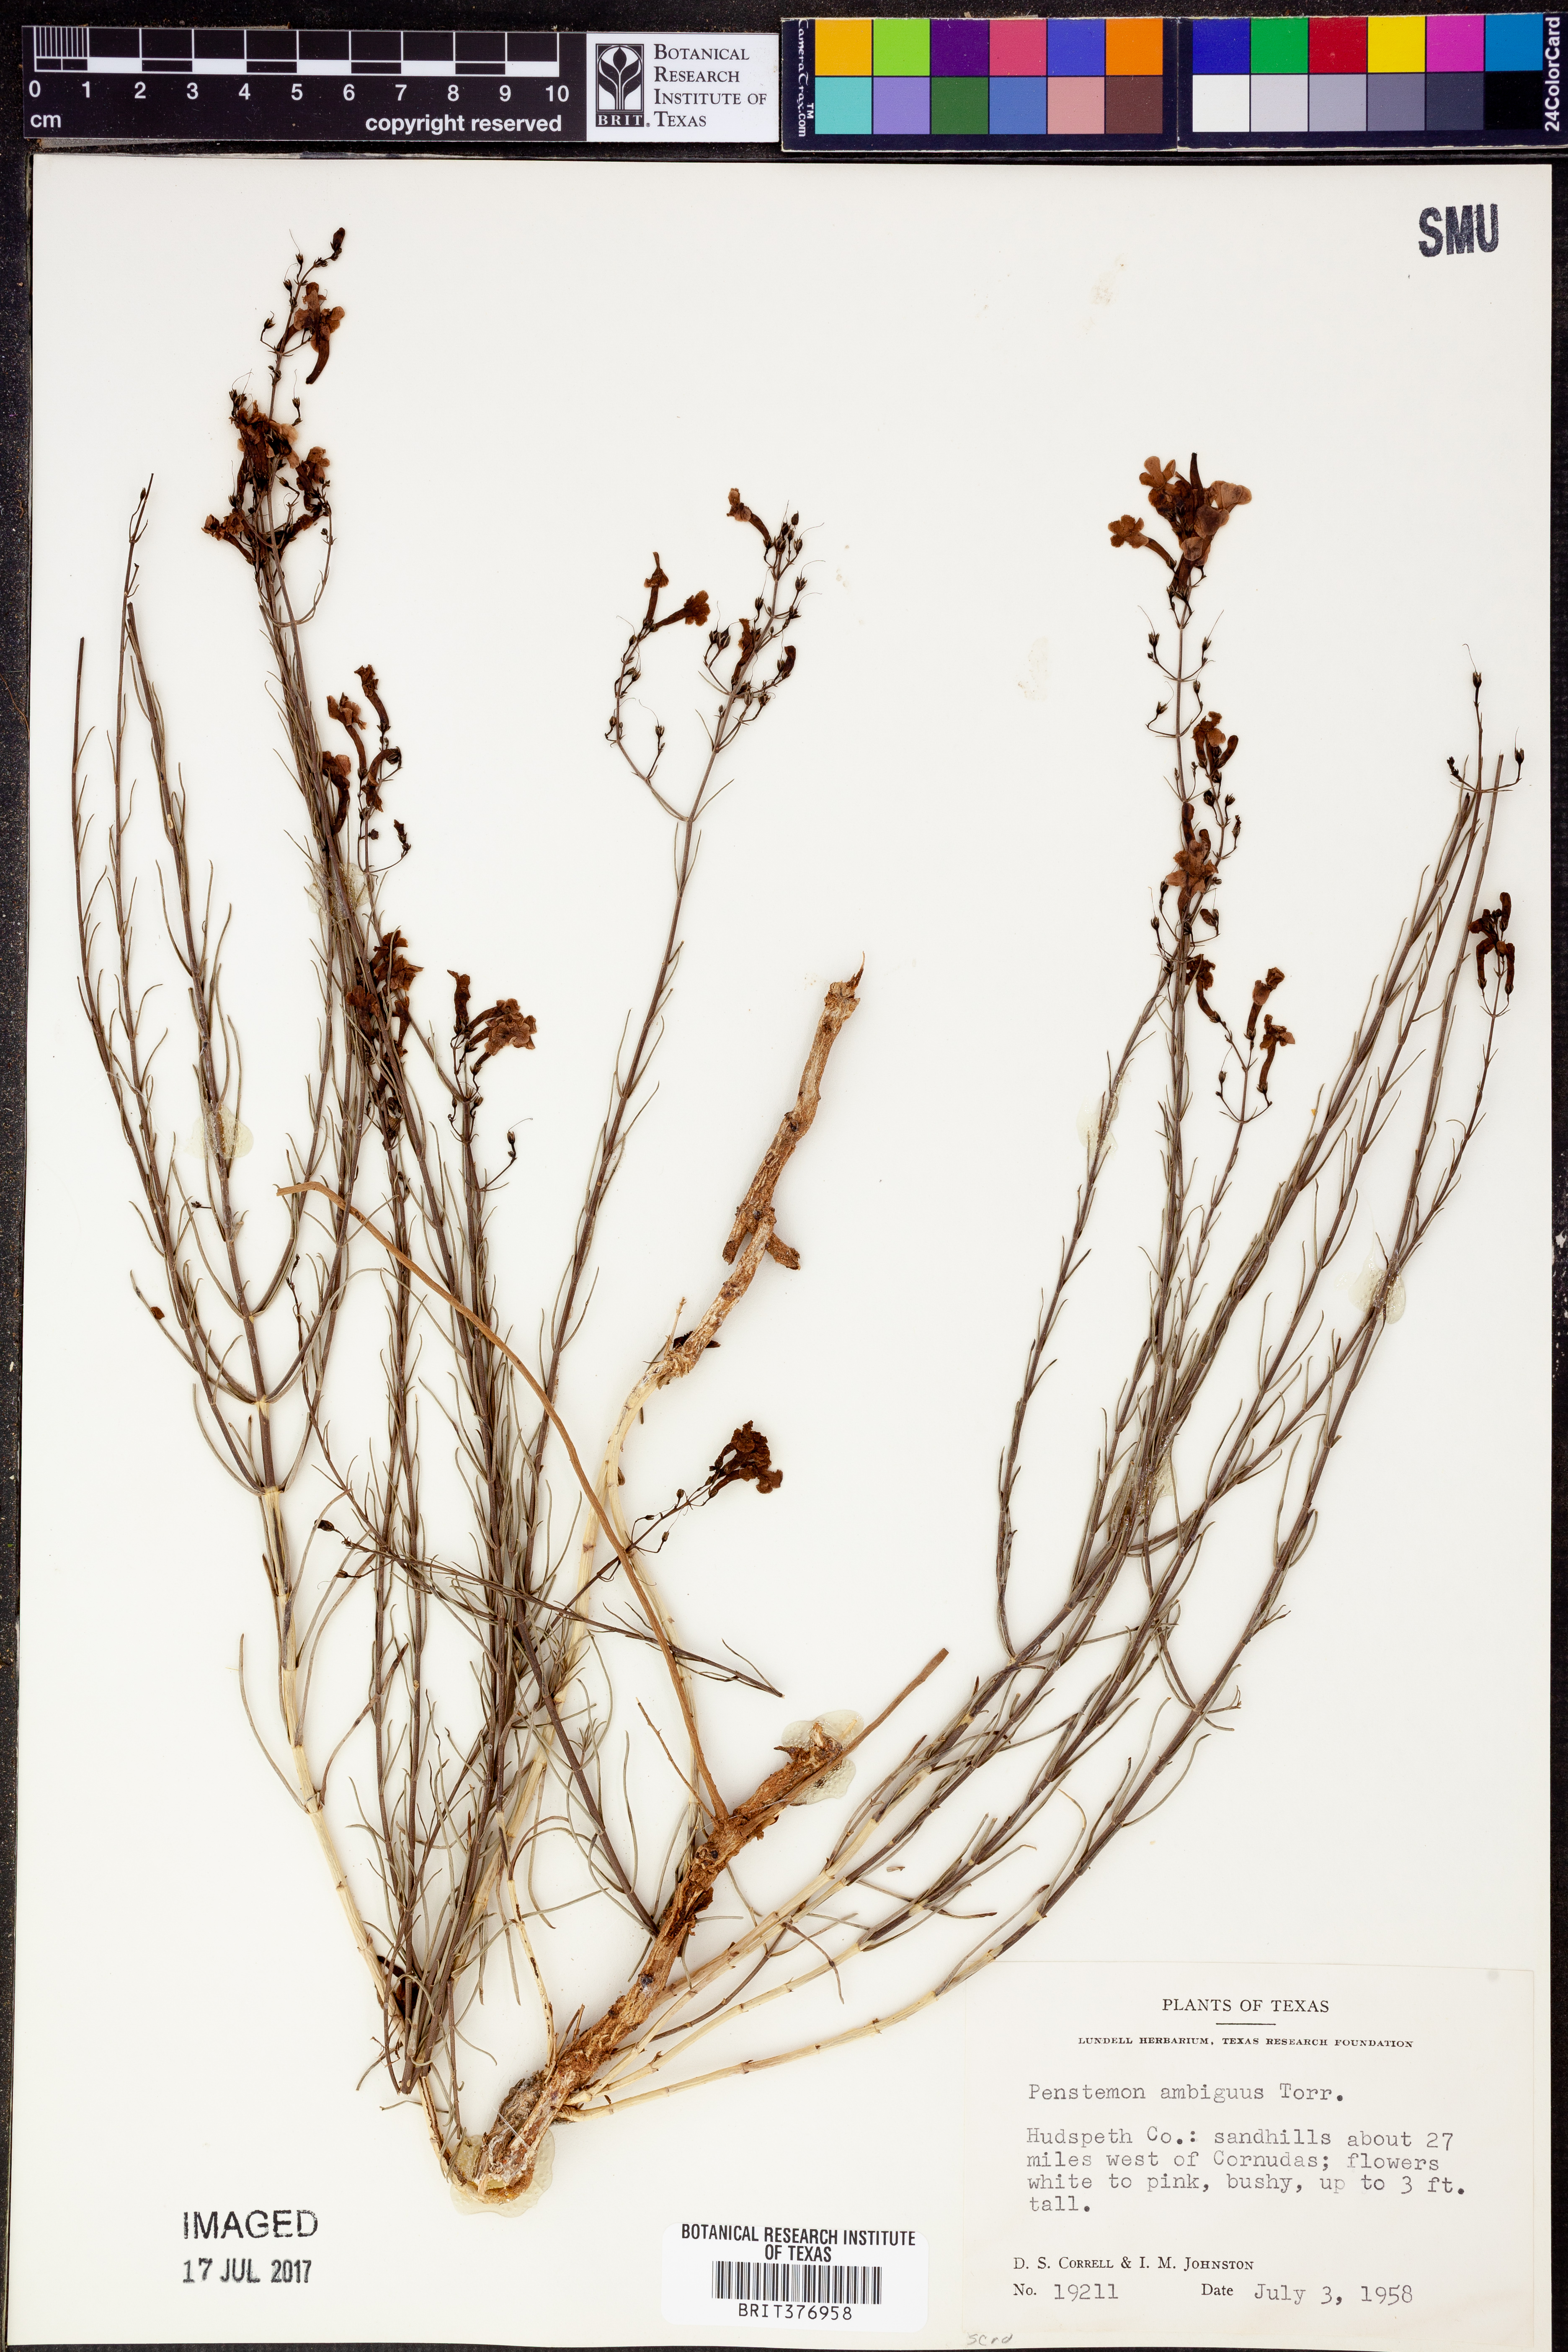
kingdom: Plantae
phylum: Tracheophyta
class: Magnoliopsida
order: Lamiales
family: Plantaginaceae
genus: Penstemon
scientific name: Penstemon ambiguus
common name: Bush penstemon
